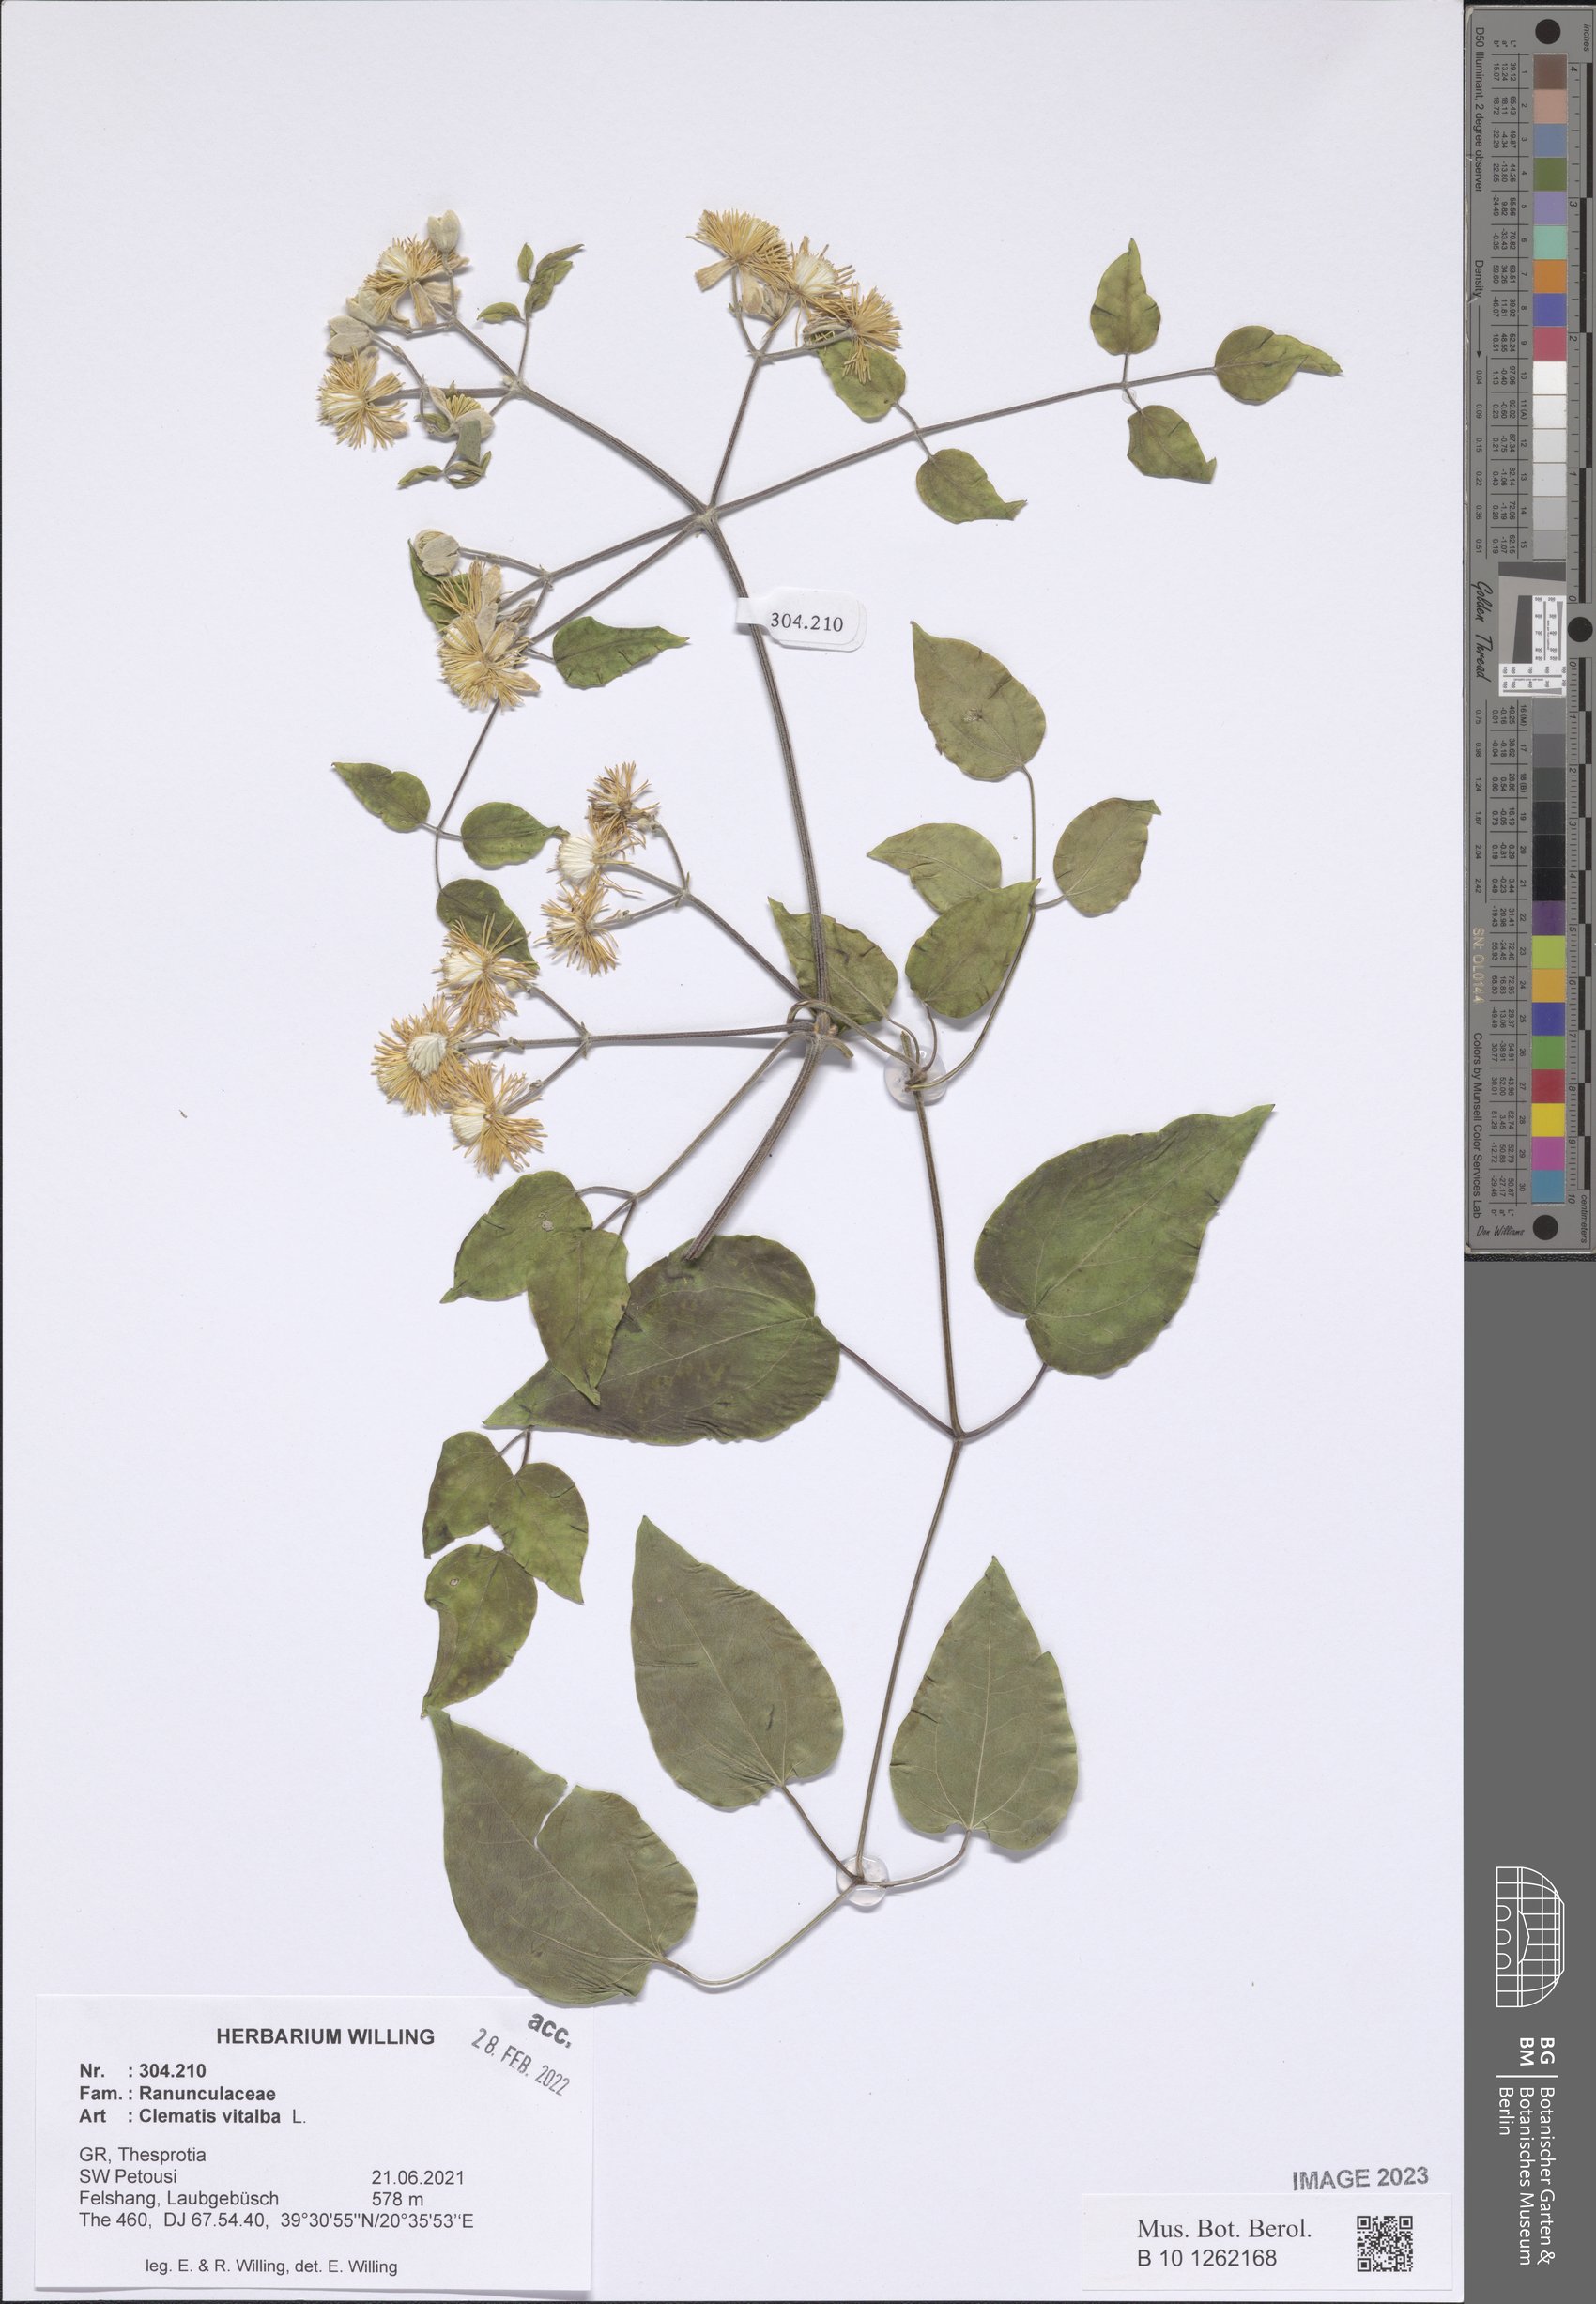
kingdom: Plantae
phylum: Tracheophyta
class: Magnoliopsida
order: Ranunculales
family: Ranunculaceae
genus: Clematis
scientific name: Clematis vitalba
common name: Evergreen clematis
